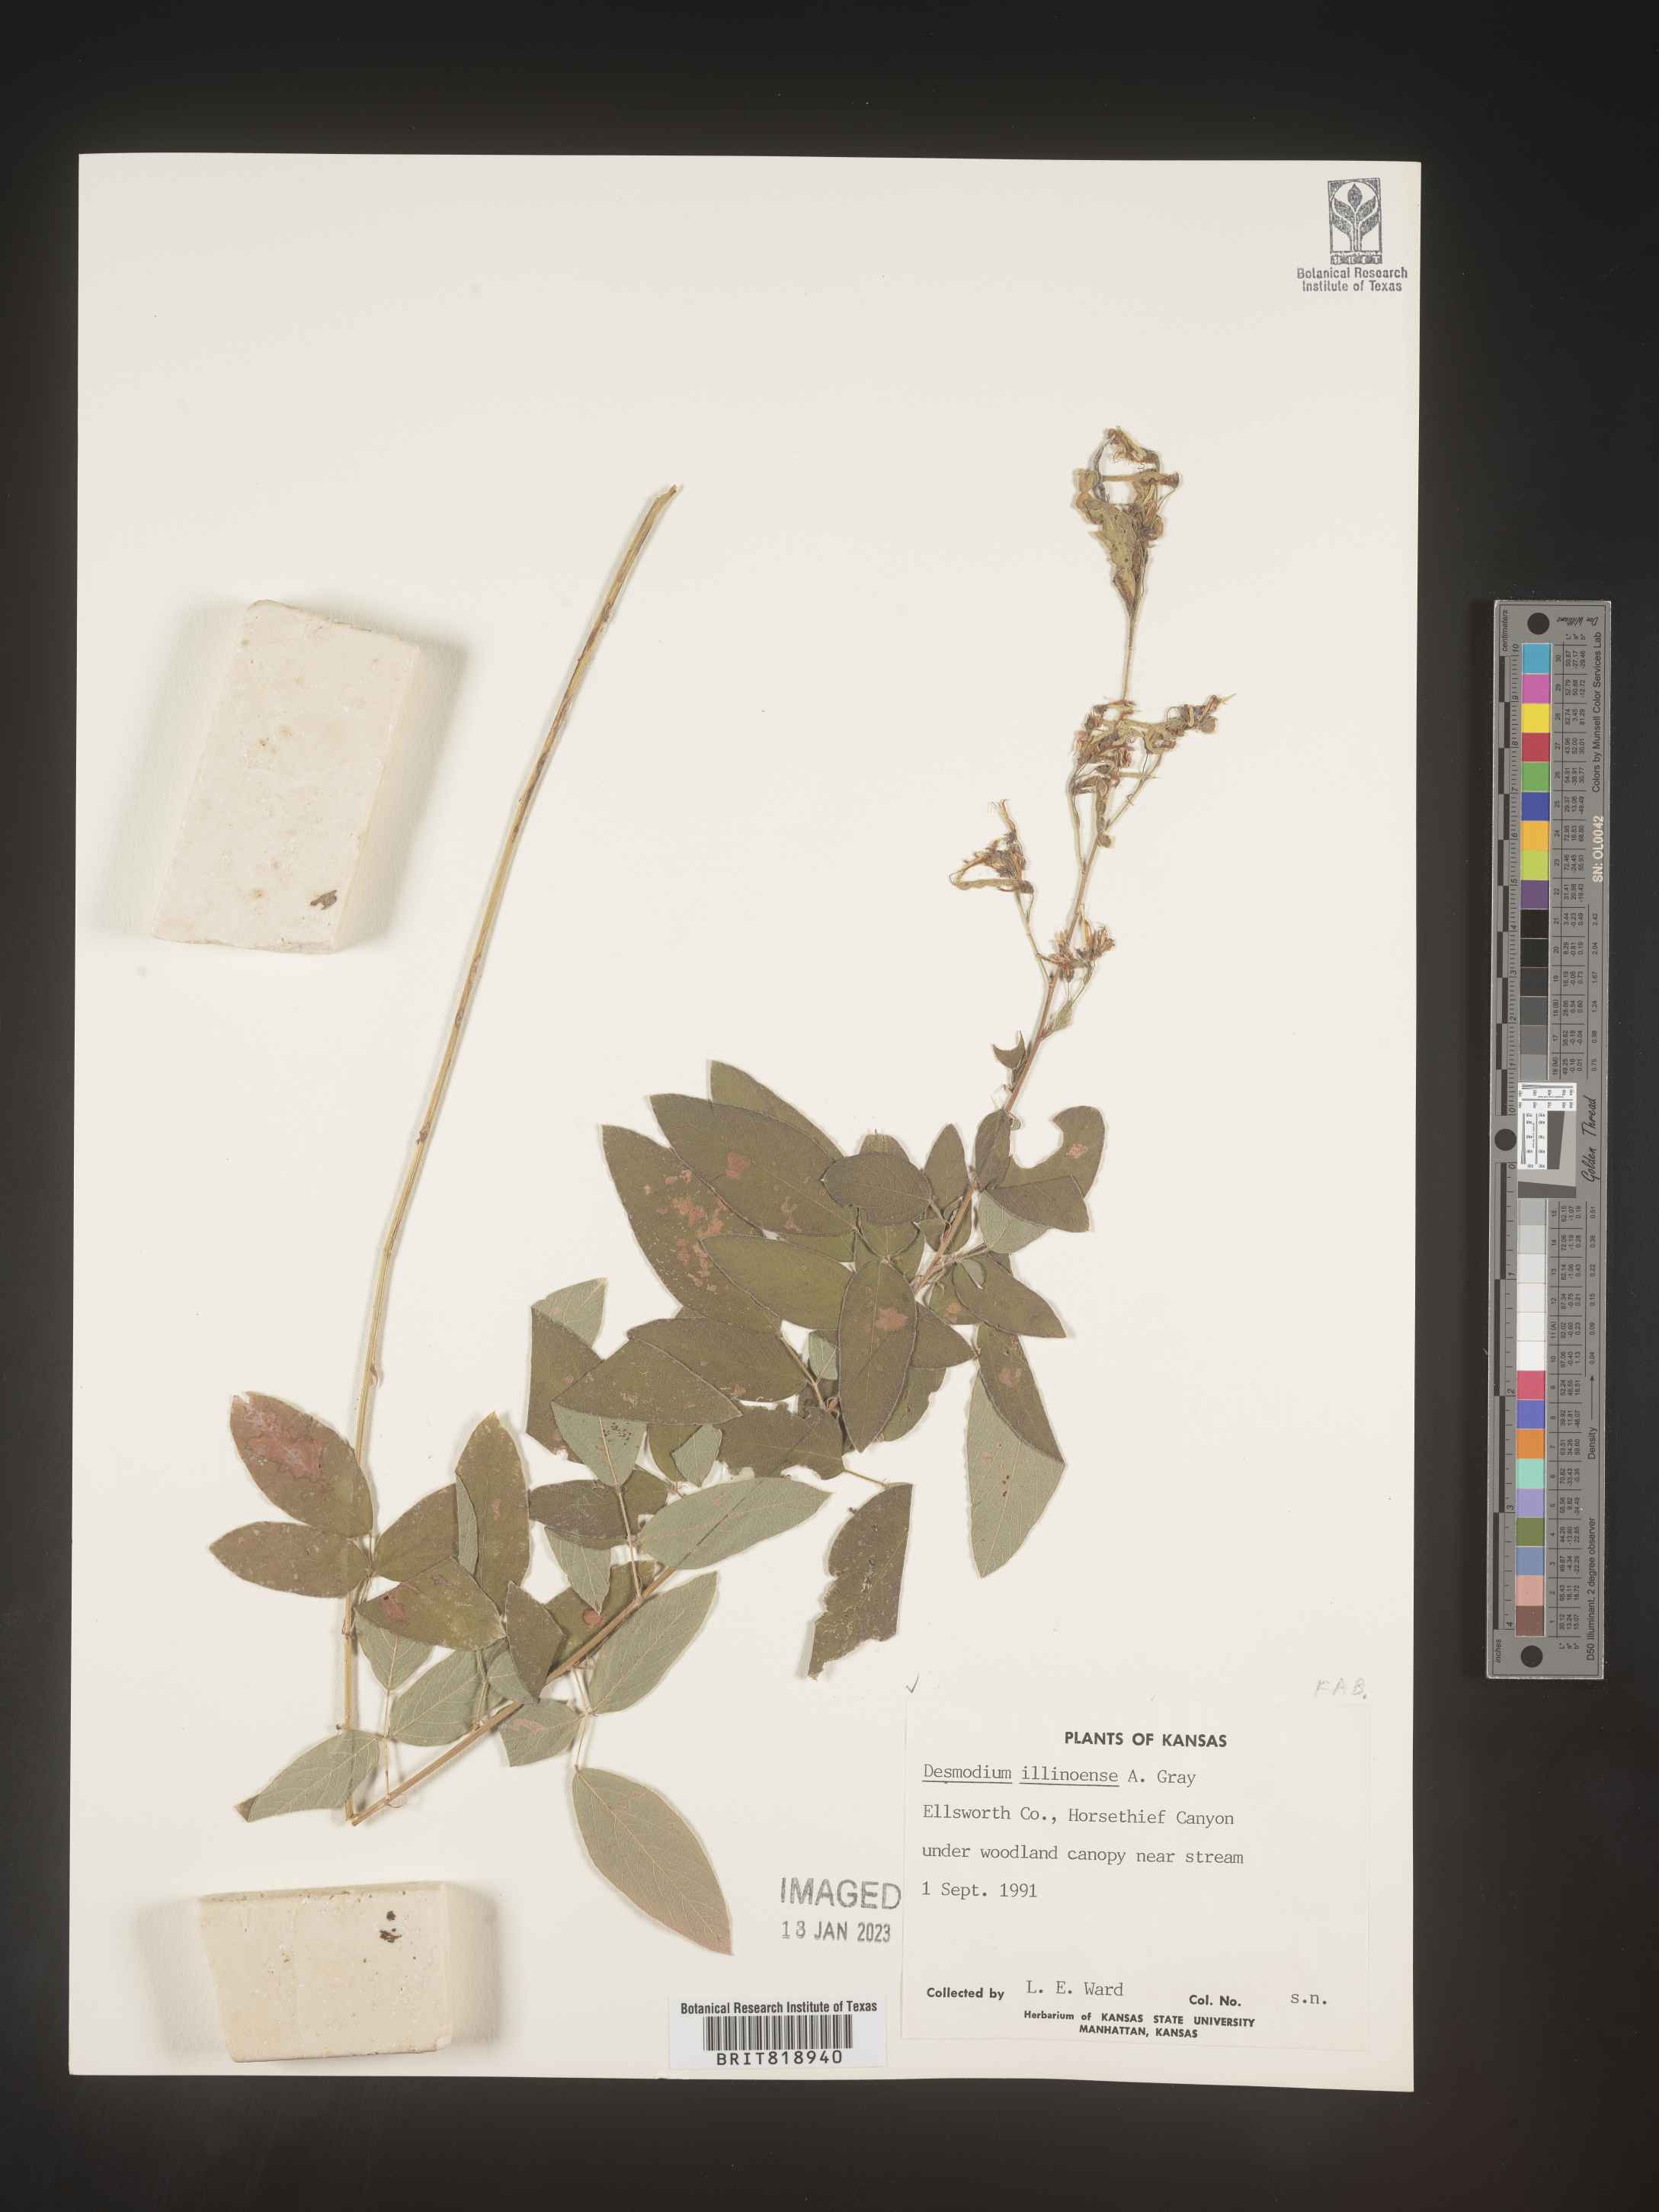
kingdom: Plantae
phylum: Tracheophyta
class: Magnoliopsida
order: Fabales
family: Fabaceae
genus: Desmodium
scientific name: Desmodium illinoense
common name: Illinois tick-clover
